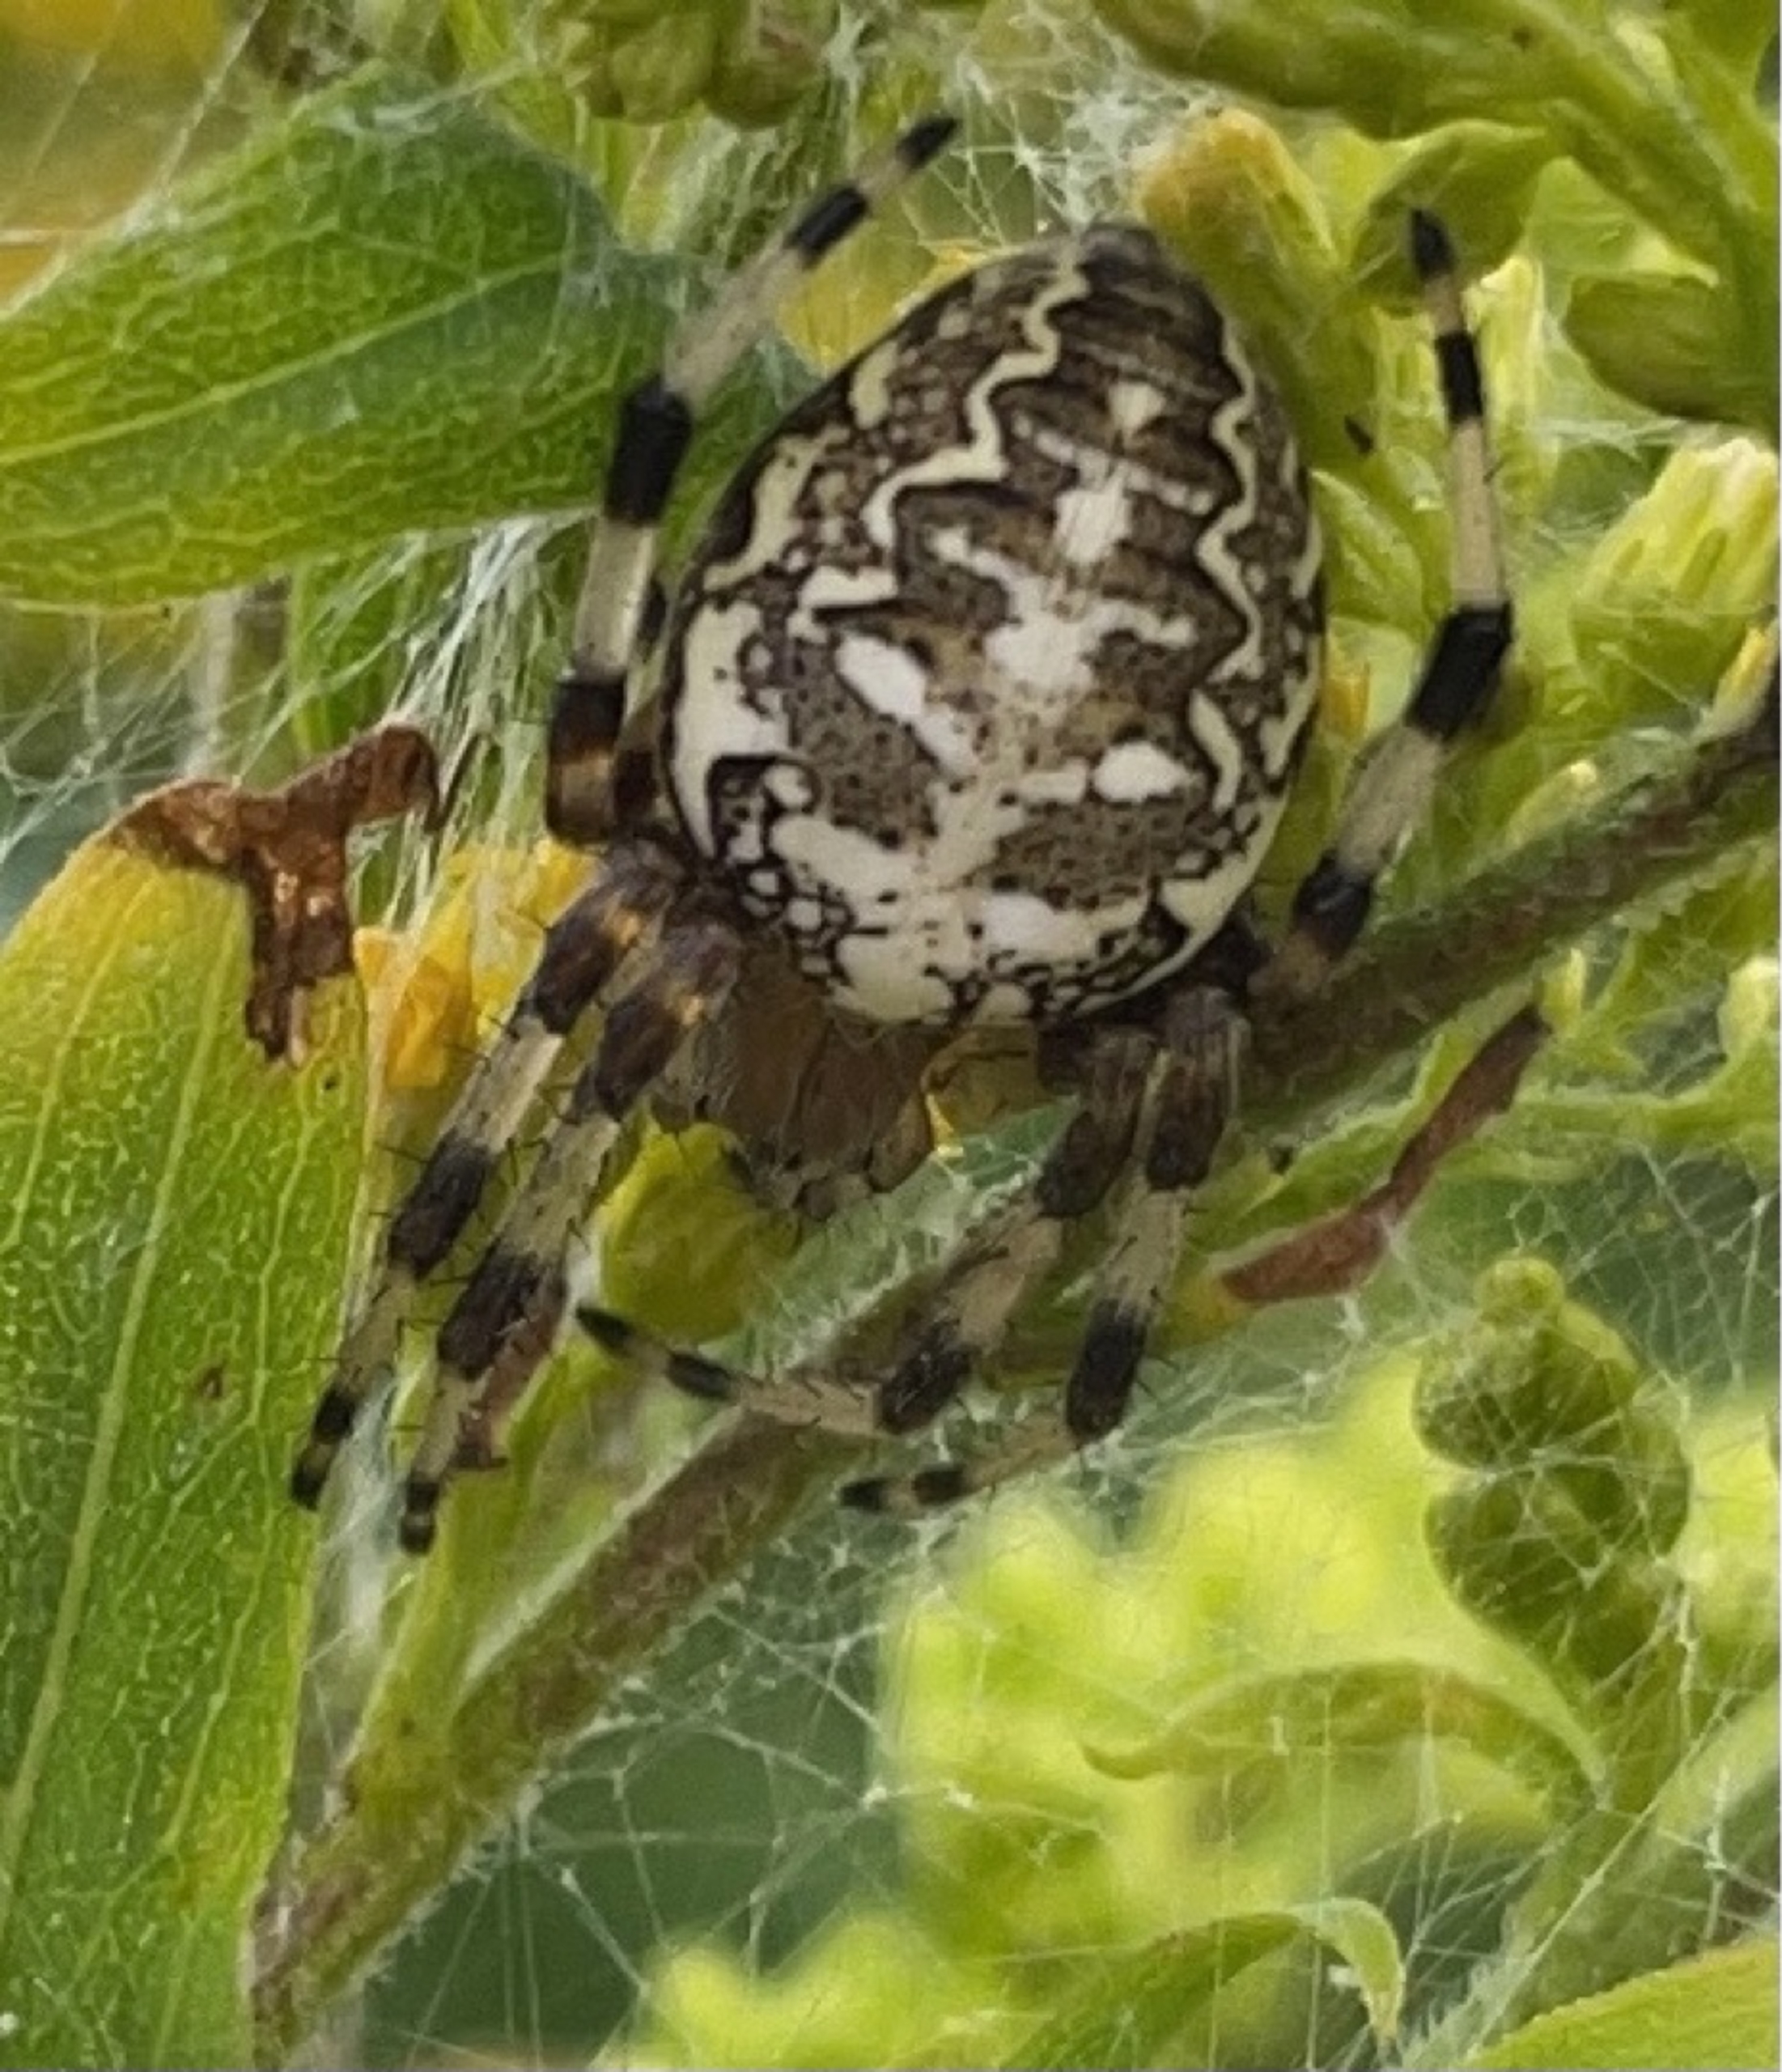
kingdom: Animalia
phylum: Arthropoda
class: Arachnida
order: Araneae
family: Araneidae
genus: Araneus
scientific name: Araneus marmoreus
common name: Marmoreret hjulspinder
